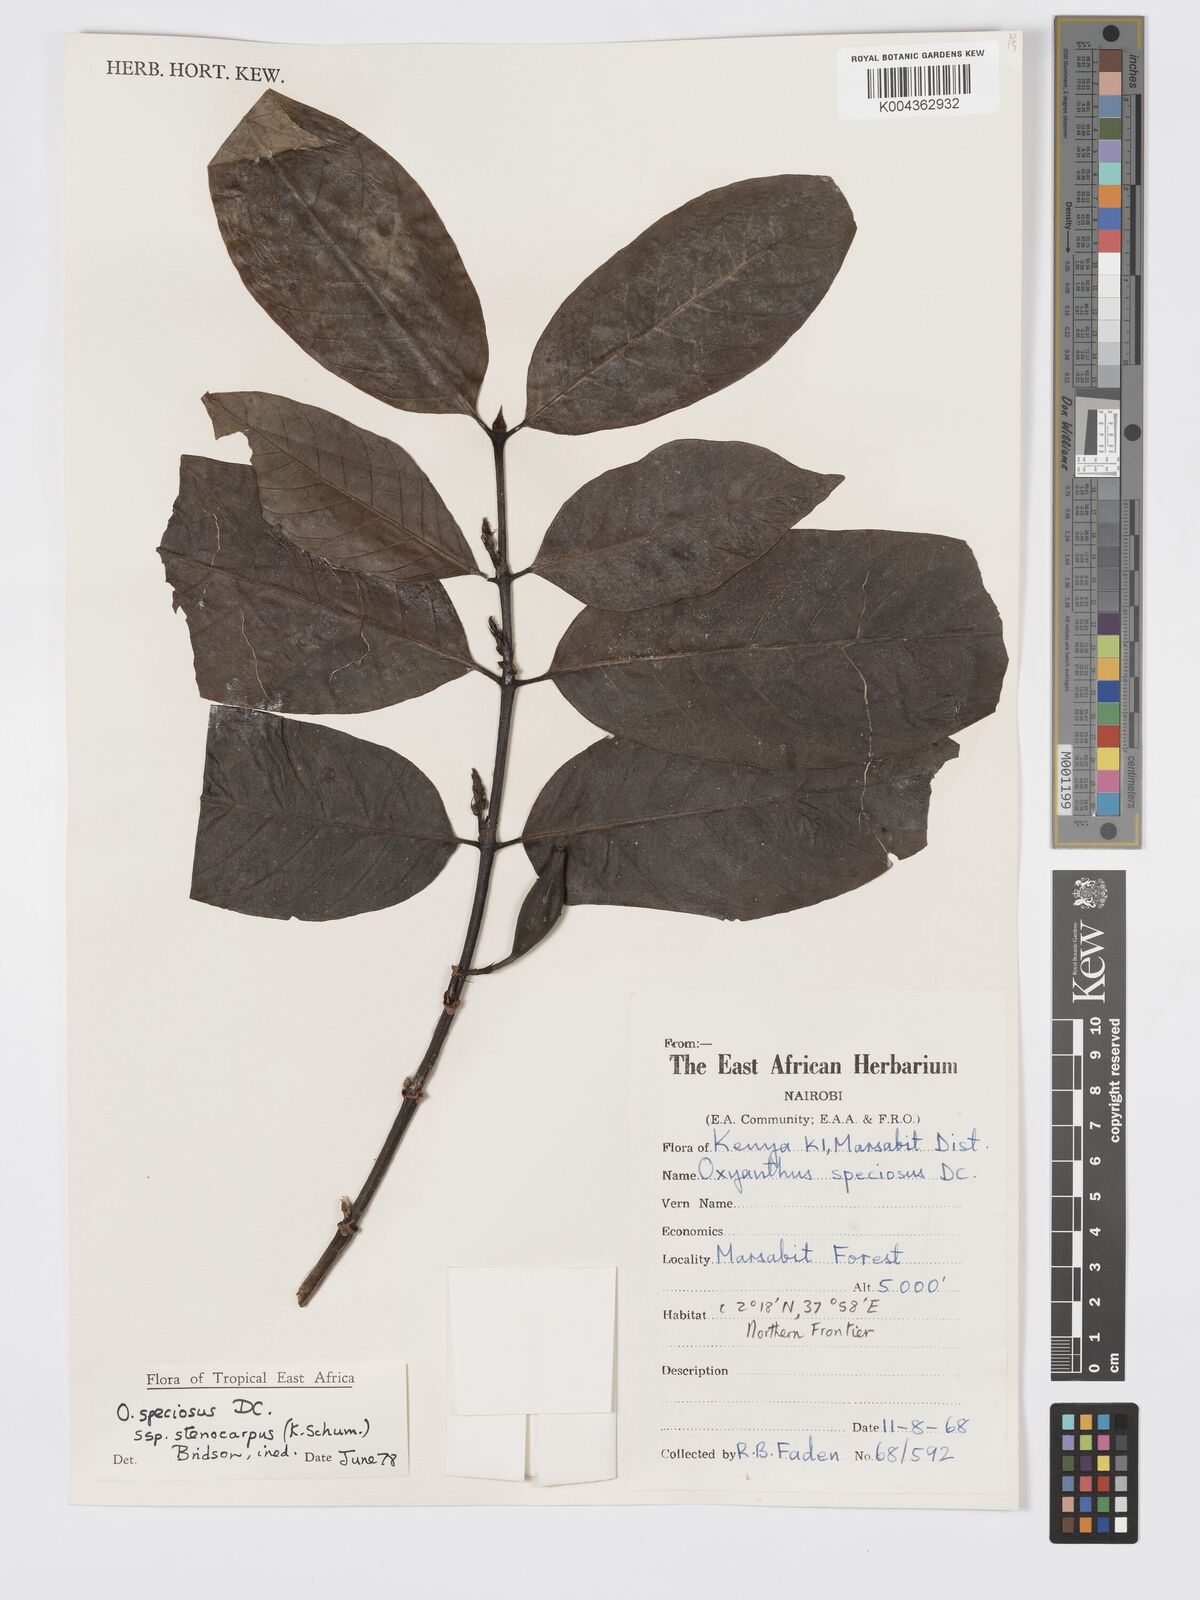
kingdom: Plantae
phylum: Tracheophyta
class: Magnoliopsida
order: Gentianales
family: Rubiaceae
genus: Oxyanthus
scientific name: Oxyanthus speciosus
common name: Whipstick loquat
